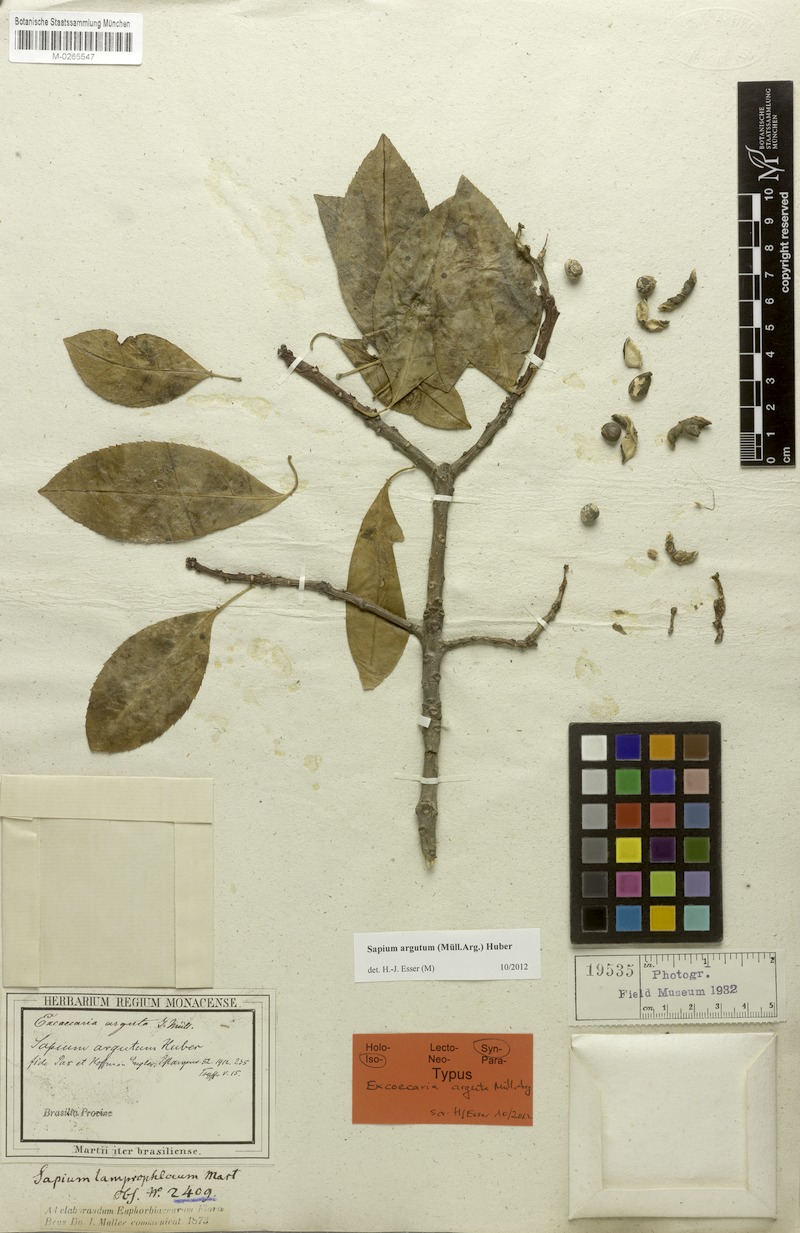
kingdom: Plantae
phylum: Tracheophyta
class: Magnoliopsida
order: Malpighiales
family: Euphorbiaceae
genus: Sapium
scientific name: Sapium argutum
